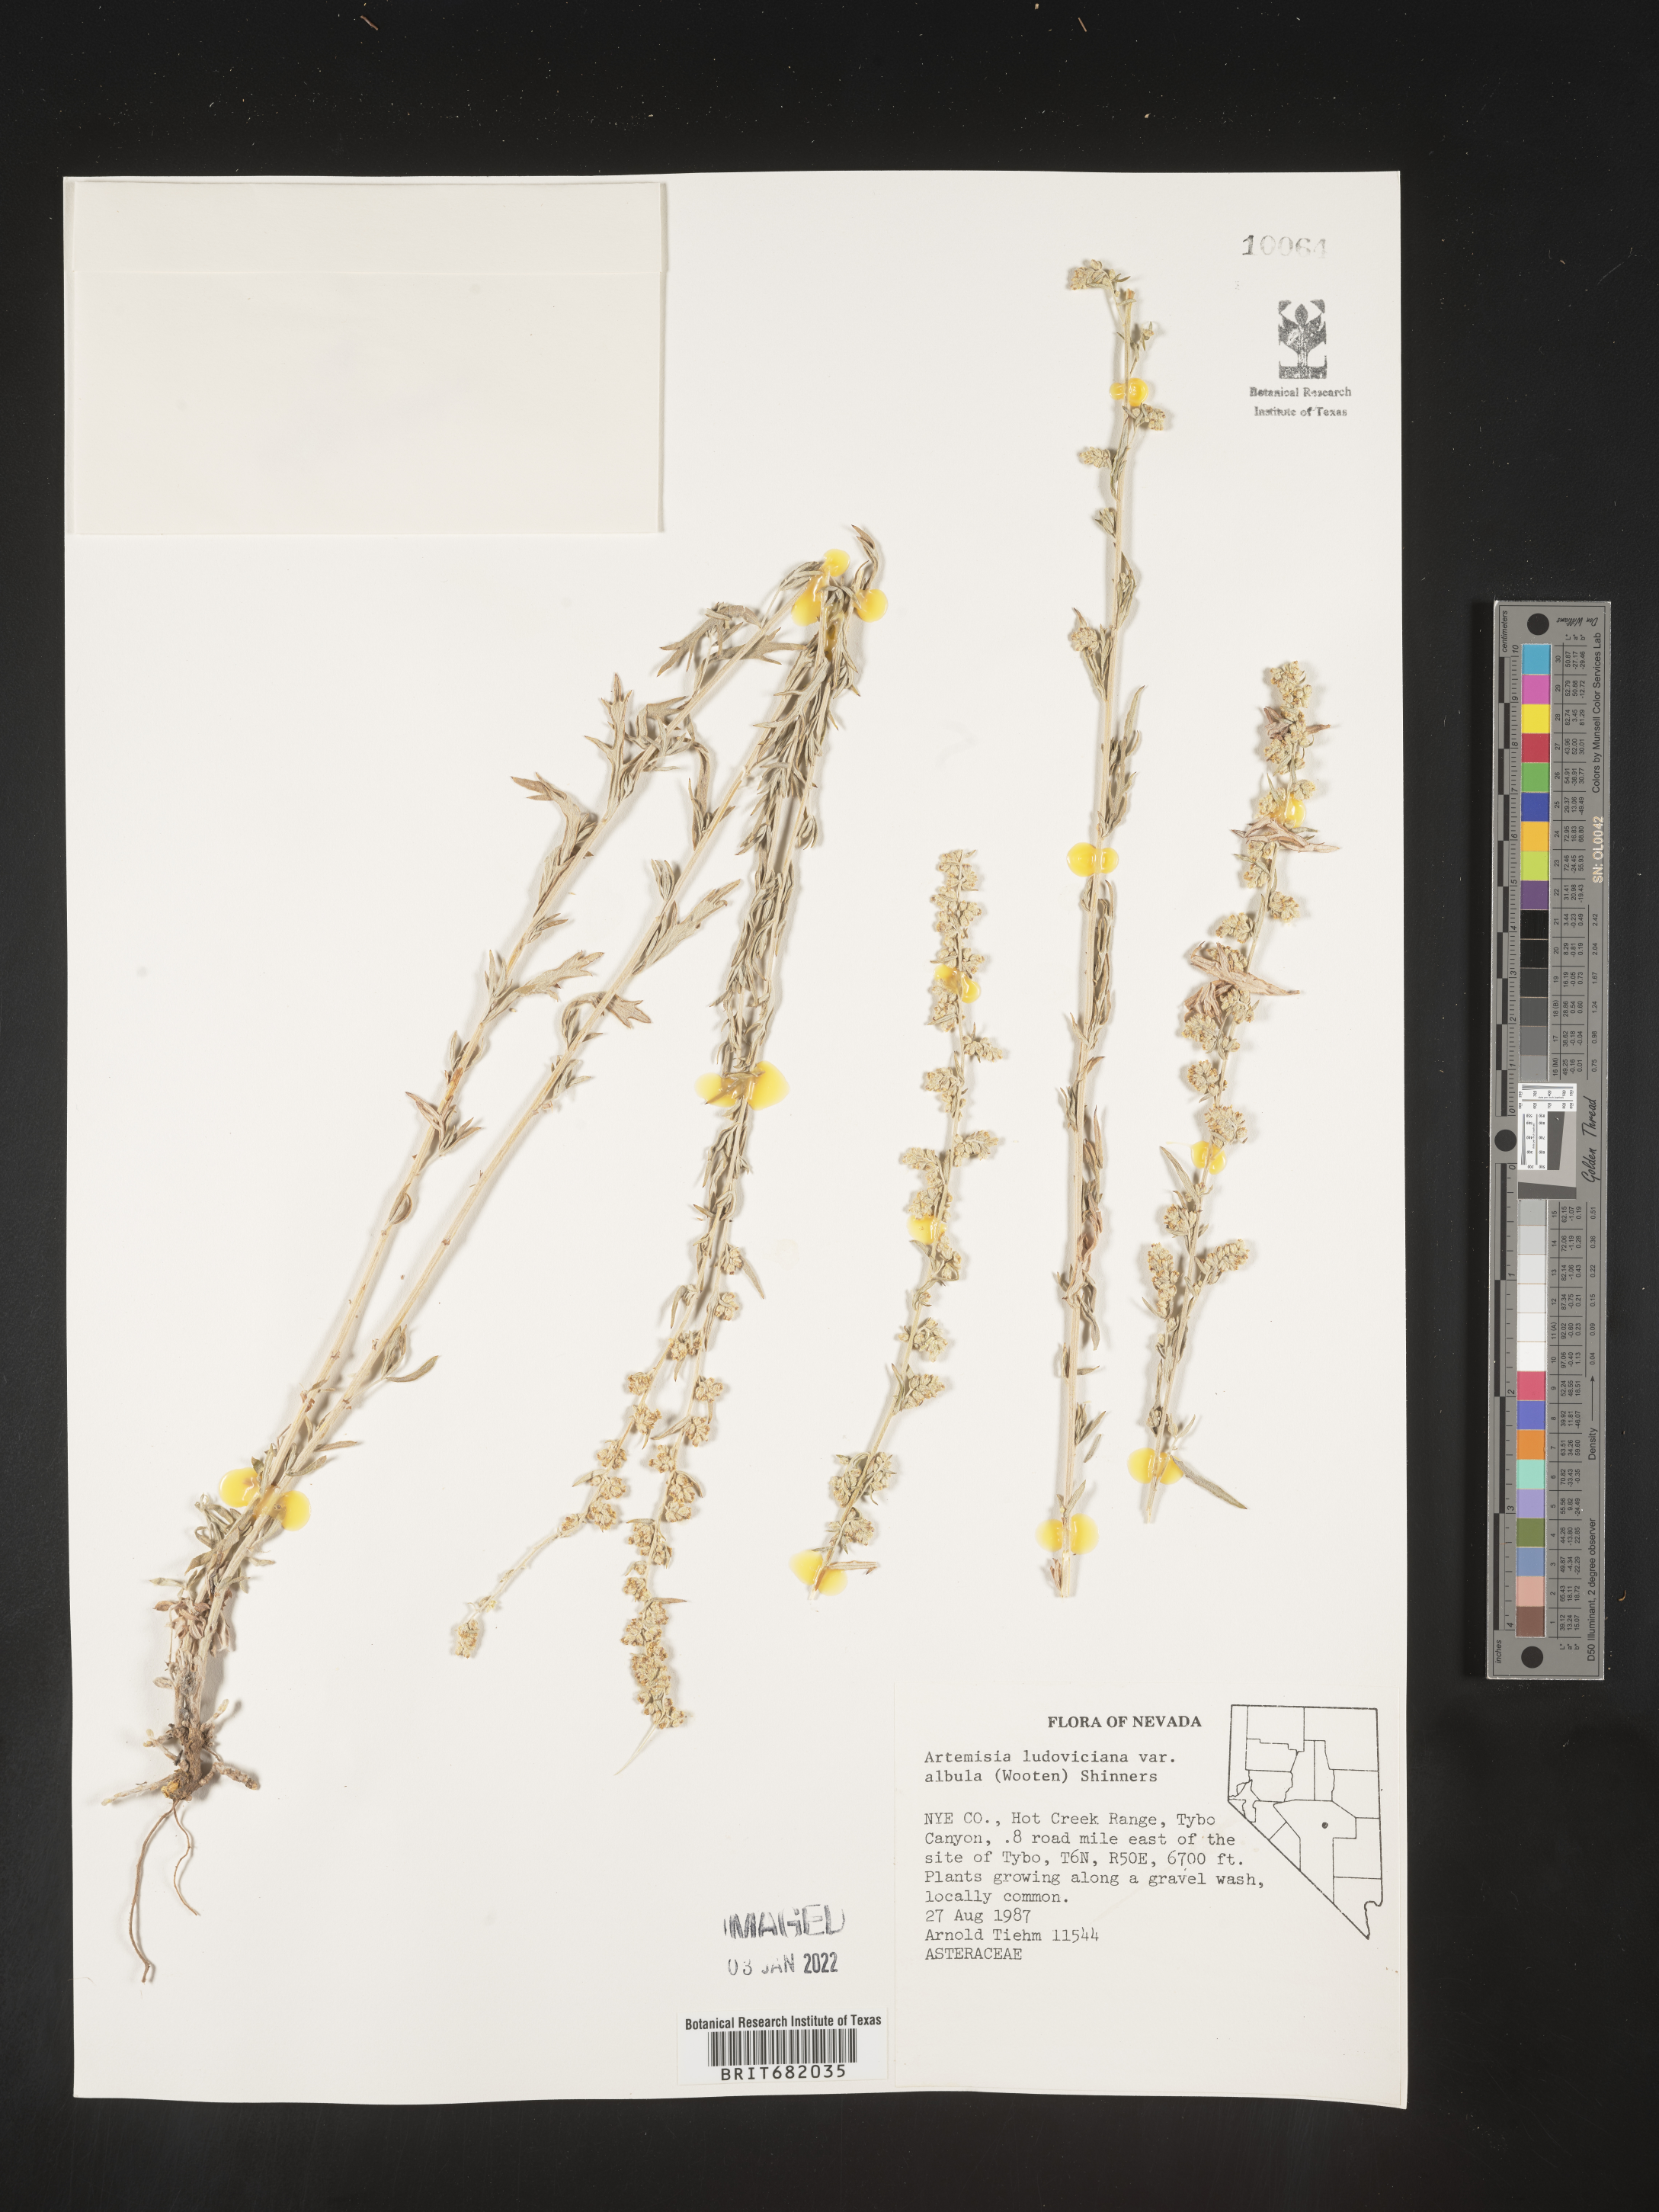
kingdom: Plantae
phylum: Tracheophyta
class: Magnoliopsida
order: Asterales
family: Asteraceae
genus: Artemisia
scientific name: Artemisia ludoviciana
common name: Western mugwort
